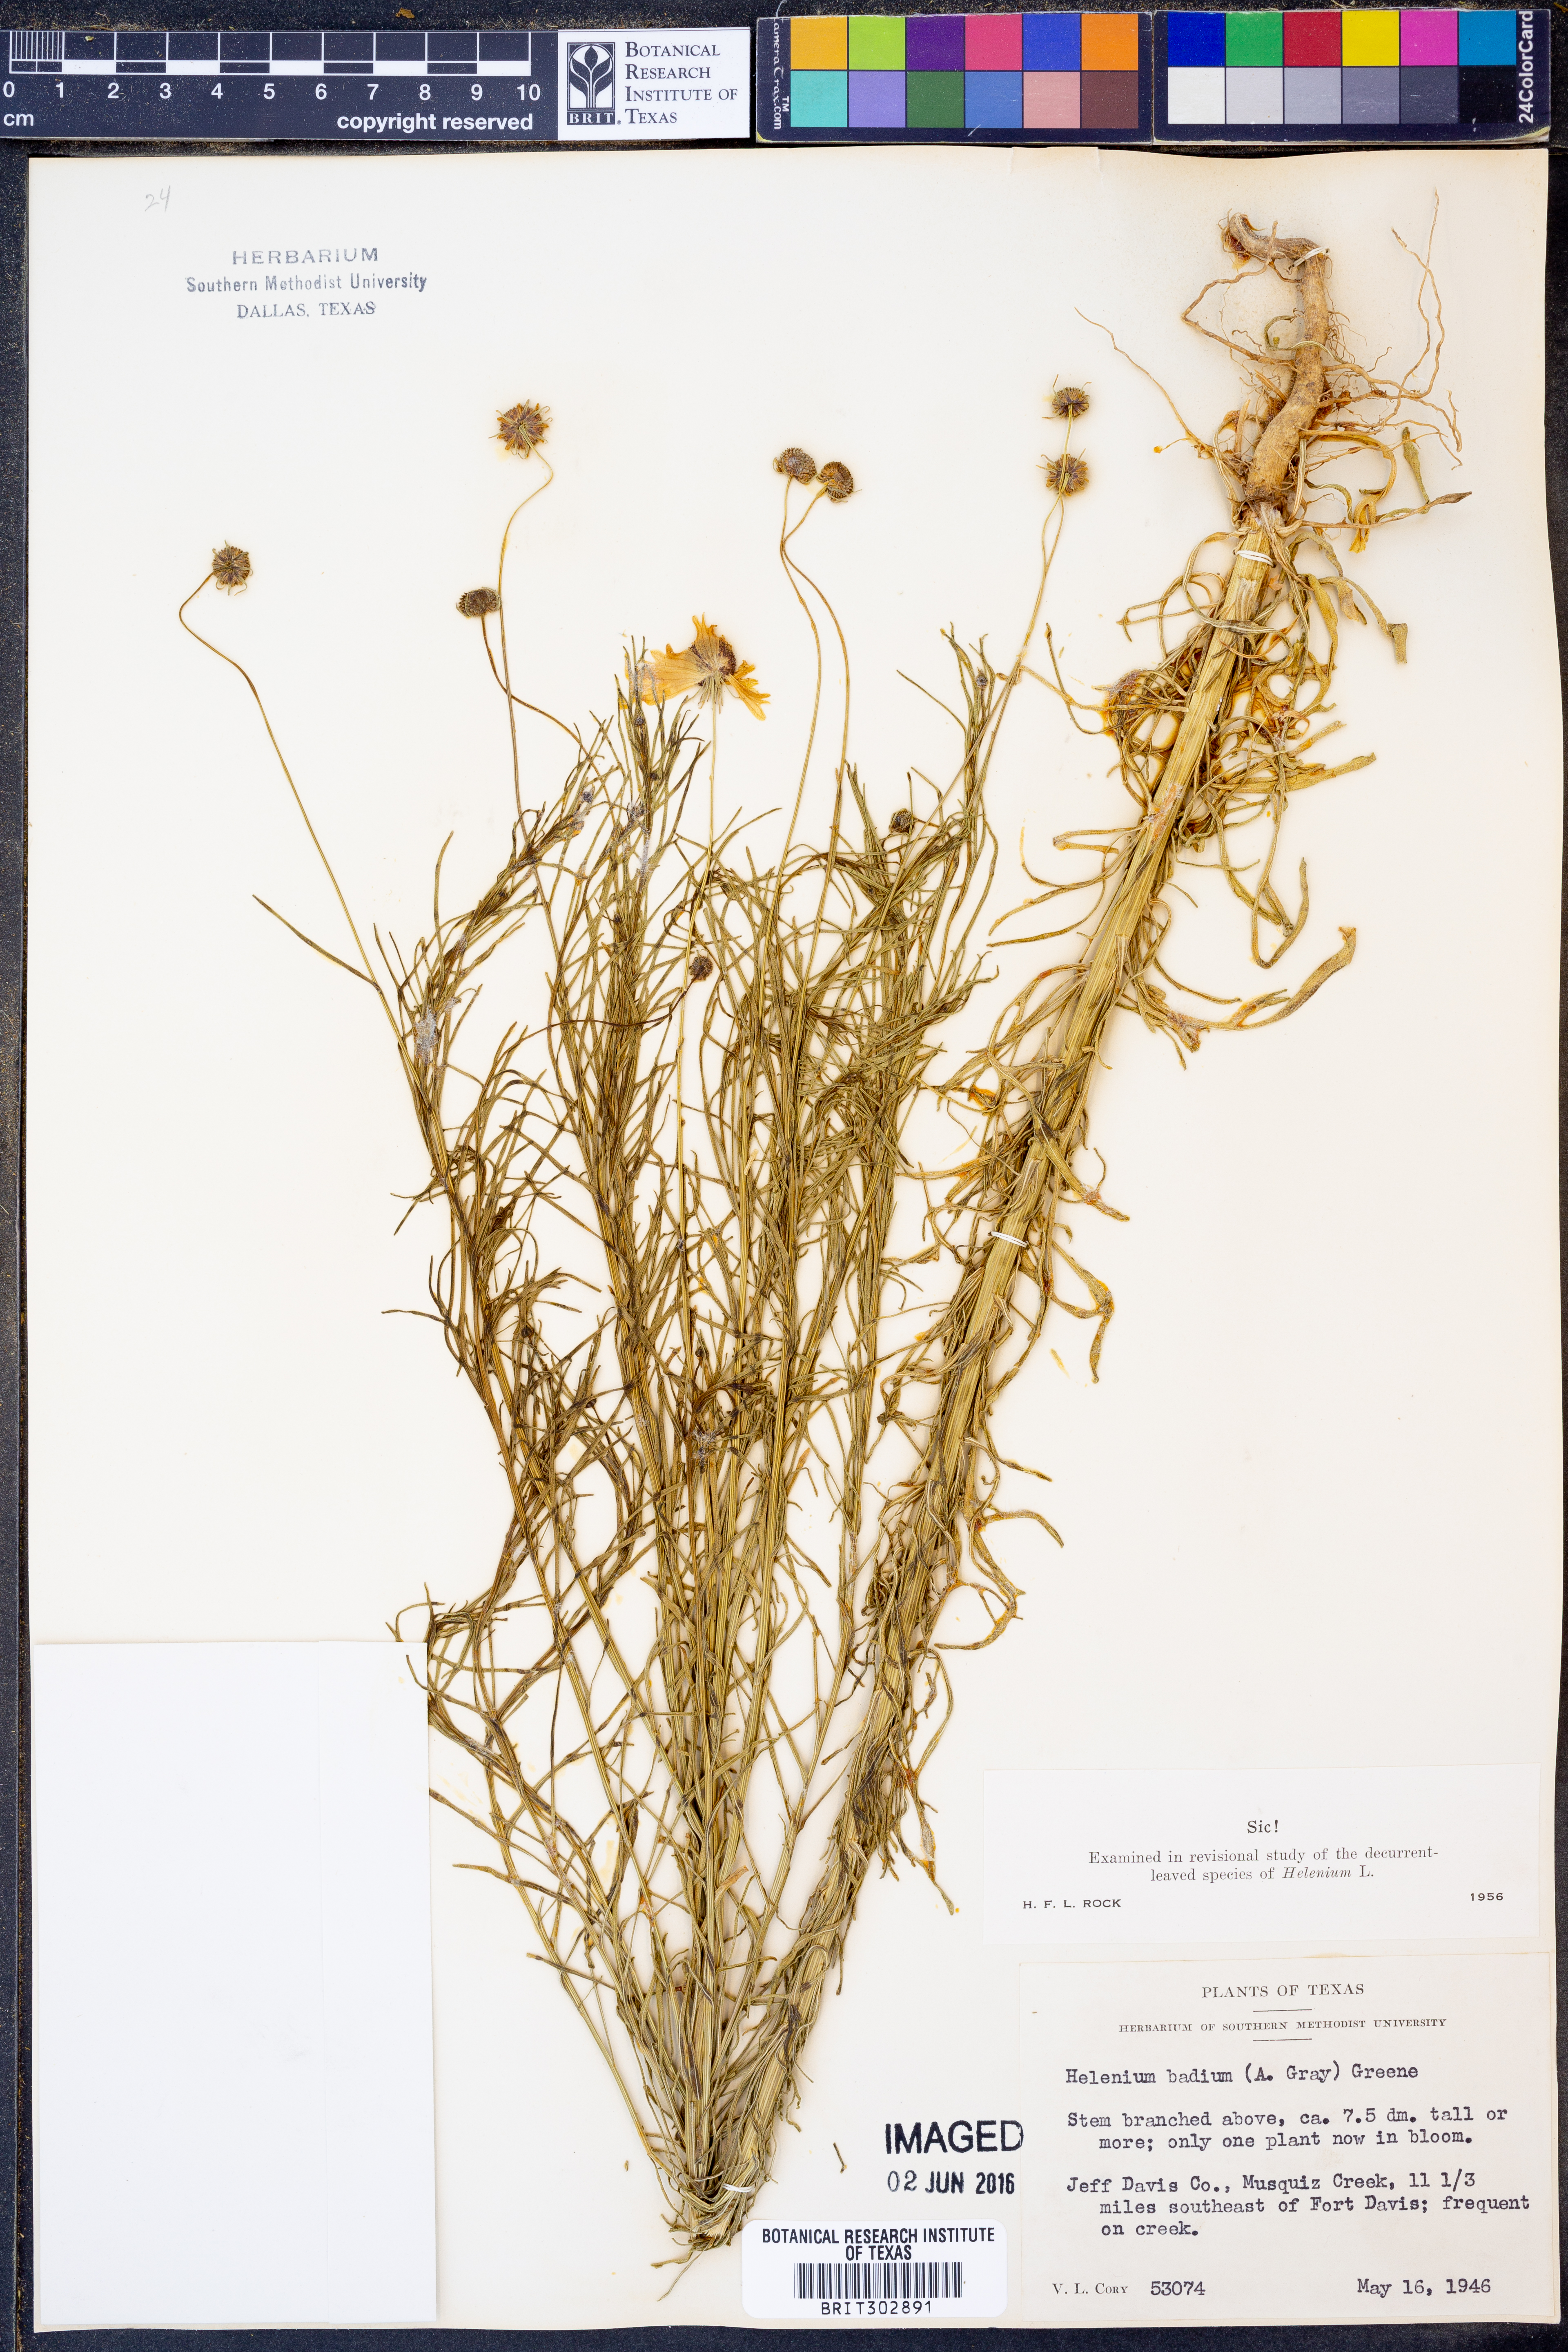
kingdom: Plantae
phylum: Tracheophyta
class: Magnoliopsida
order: Asterales
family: Asteraceae
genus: Helenium
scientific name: Helenium amarum
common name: Bitter sneezeweed
